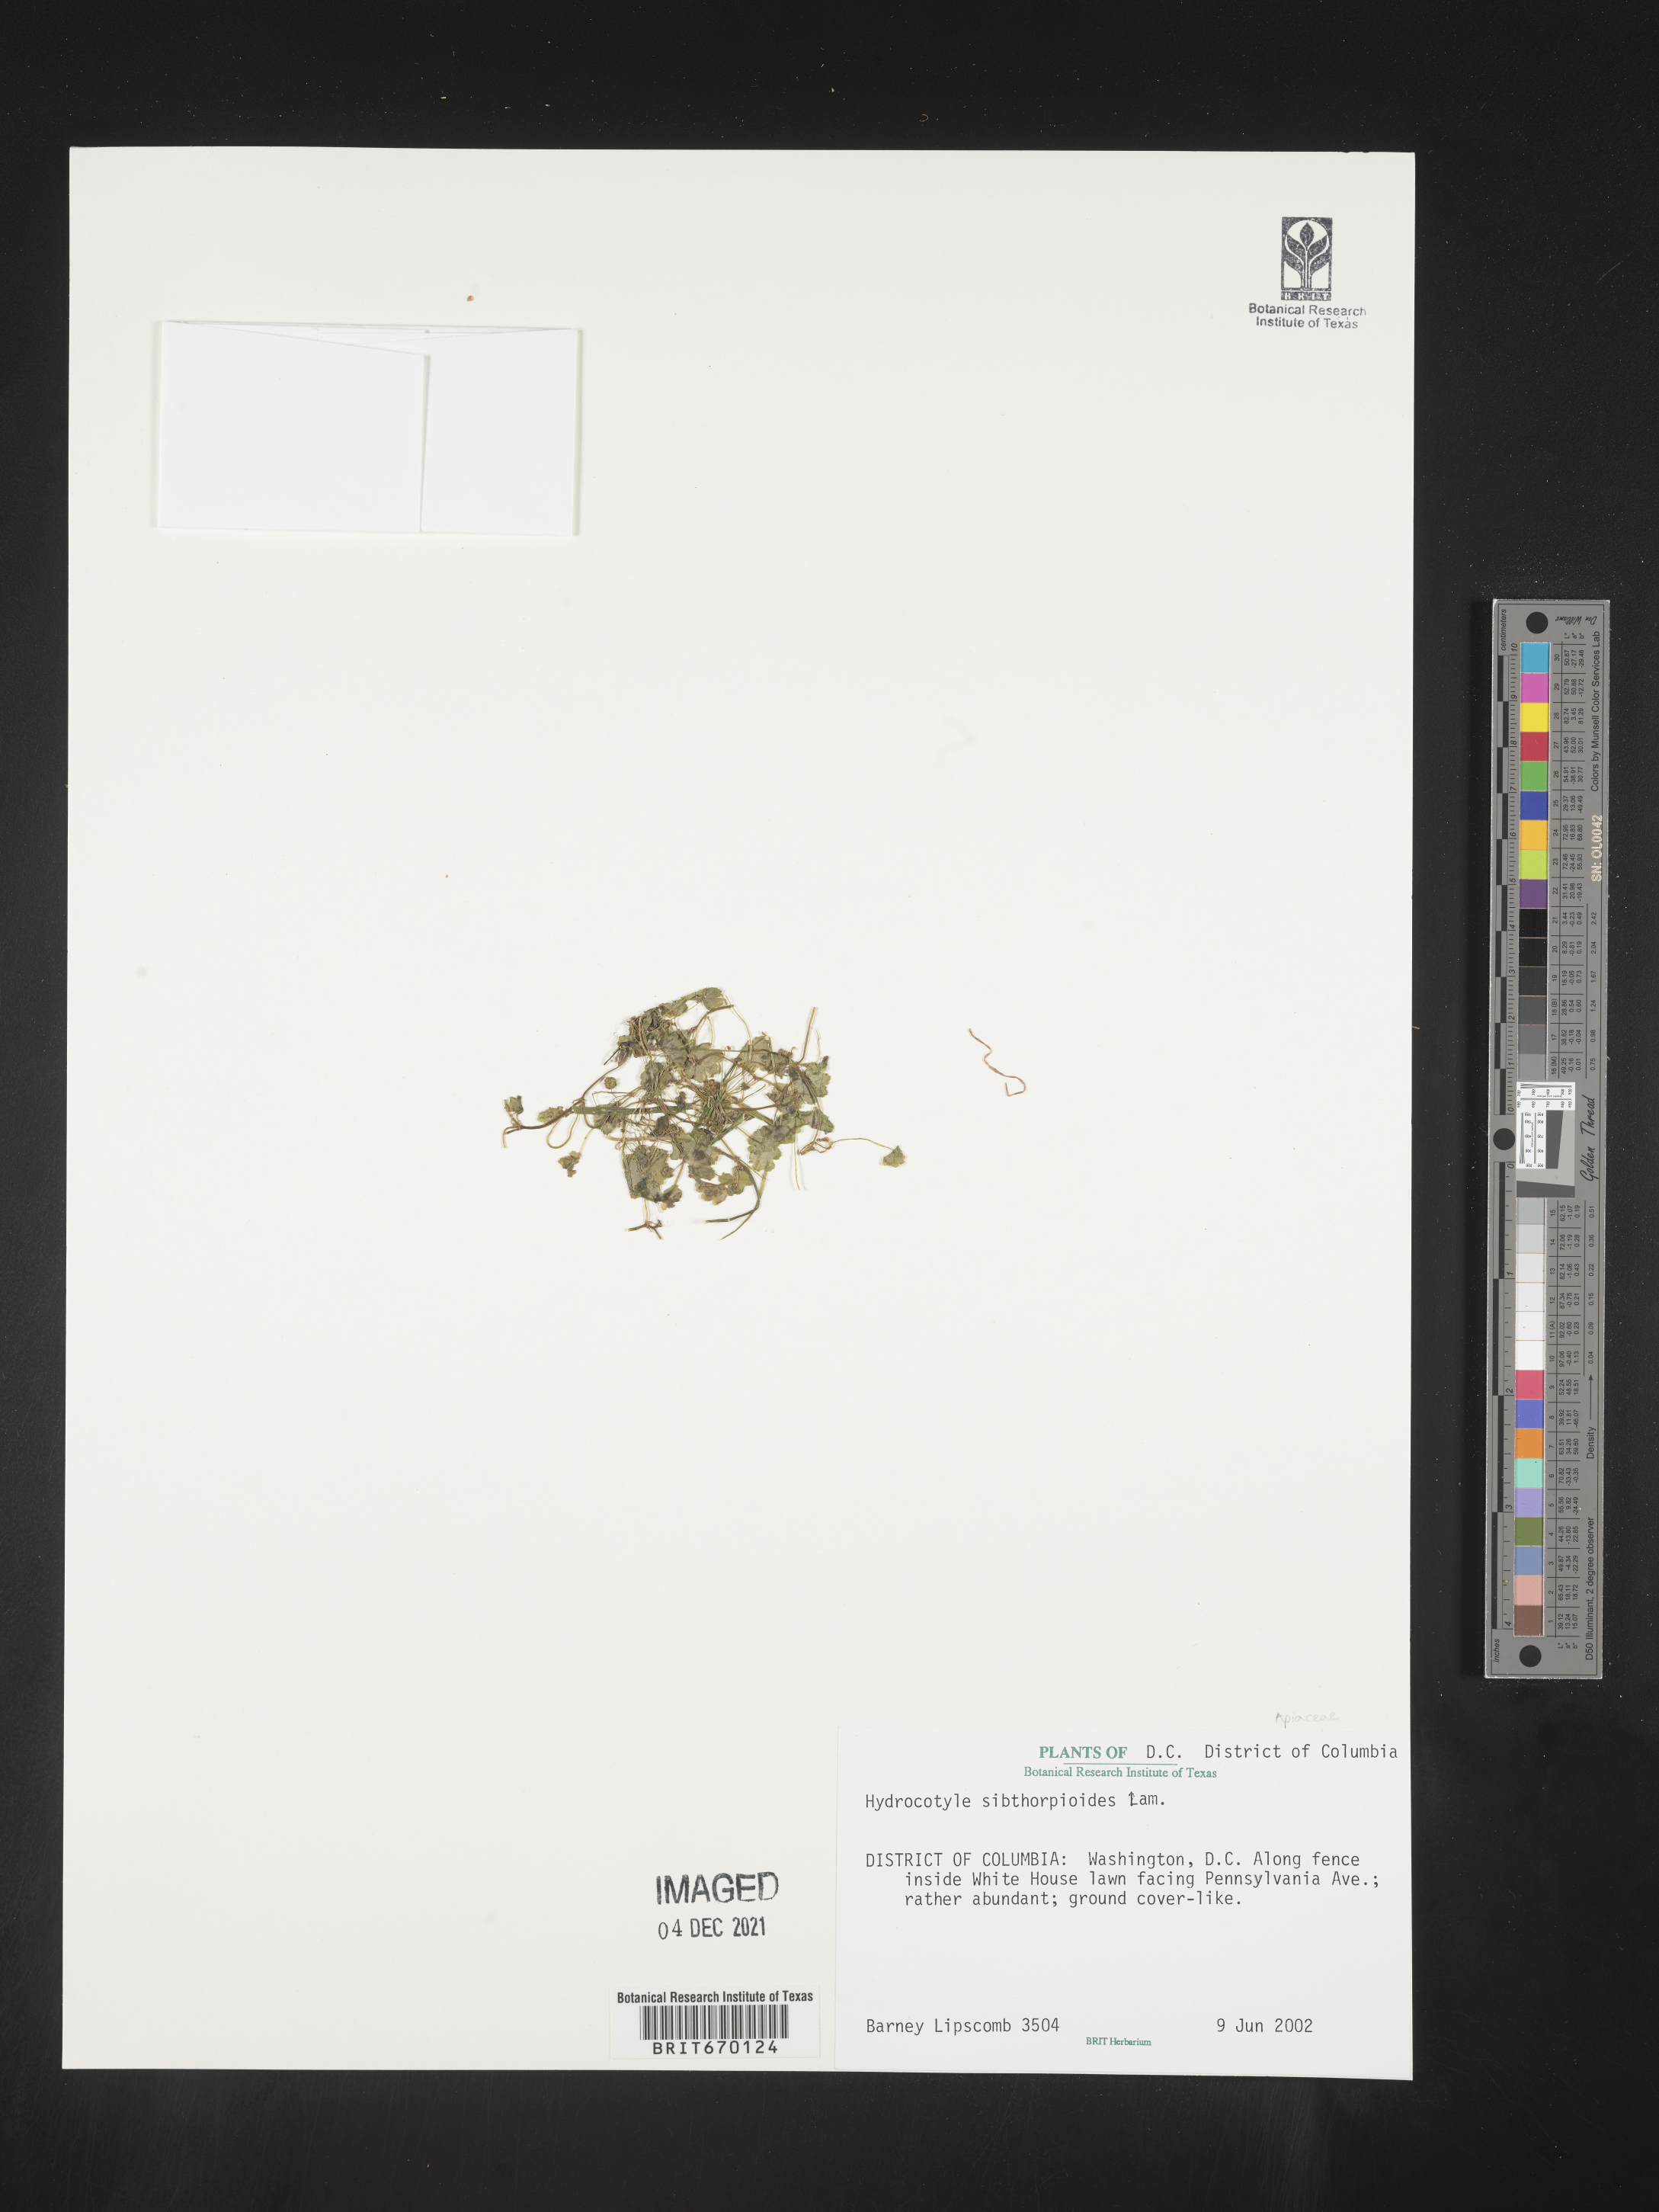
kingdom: Plantae
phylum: Tracheophyta
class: Magnoliopsida
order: Apiales
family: Araliaceae
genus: Hydrocotyle
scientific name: Hydrocotyle sibthorpioides
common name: Lawn marshpennywort
